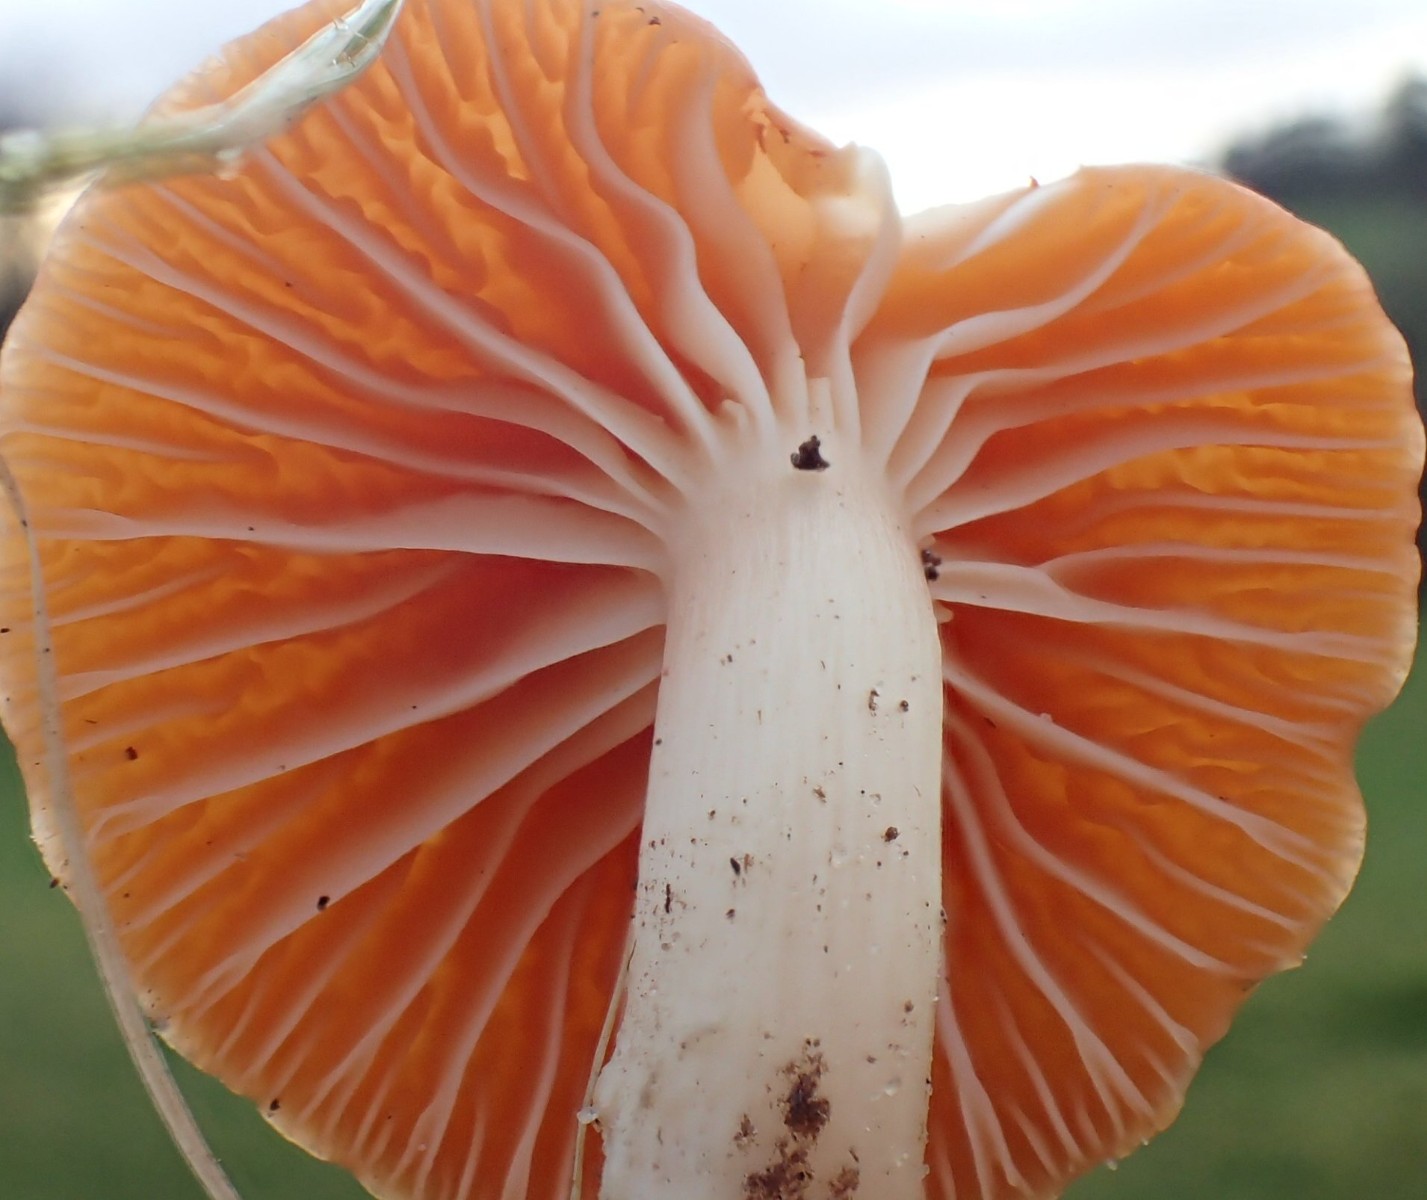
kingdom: Fungi
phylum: Basidiomycota
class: Agaricomycetes
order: Agaricales
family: Hygrophoraceae
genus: Cuphophyllus
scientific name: Cuphophyllus pratensis
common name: eng-vokshat
